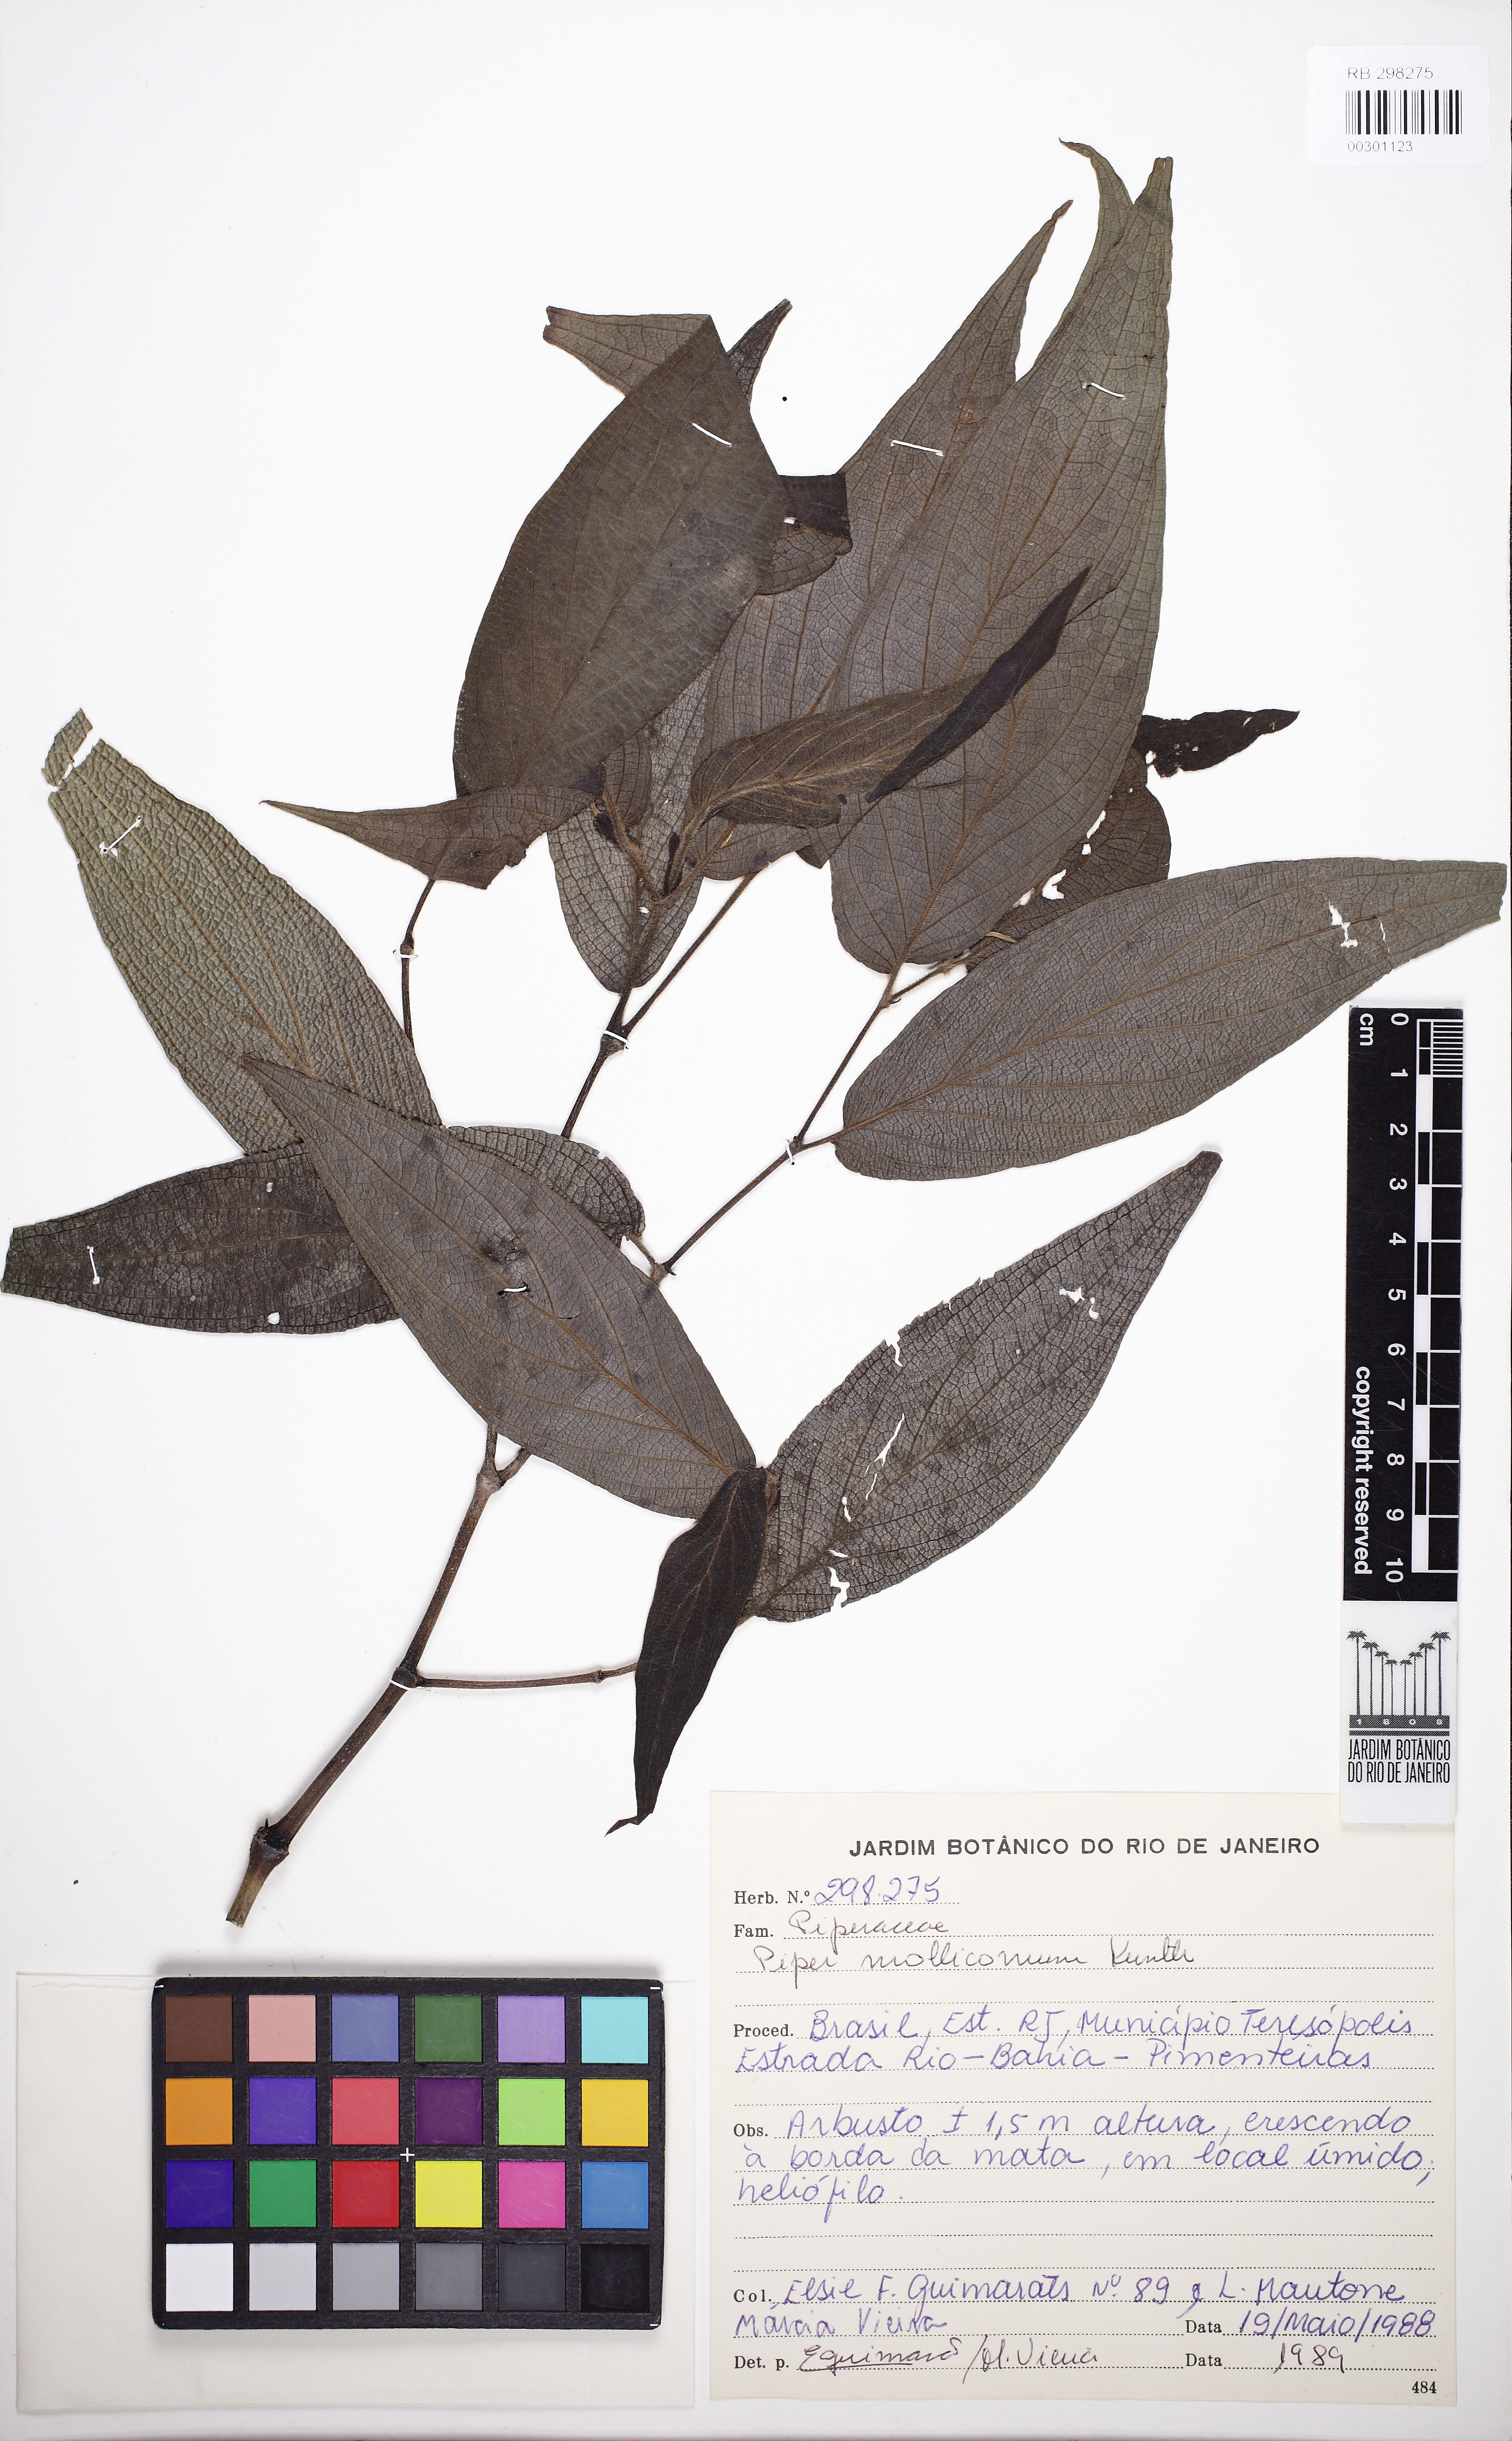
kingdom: Plantae
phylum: Tracheophyta
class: Magnoliopsida
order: Piperales
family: Piperaceae
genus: Piper
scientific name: Piper mollicomum
